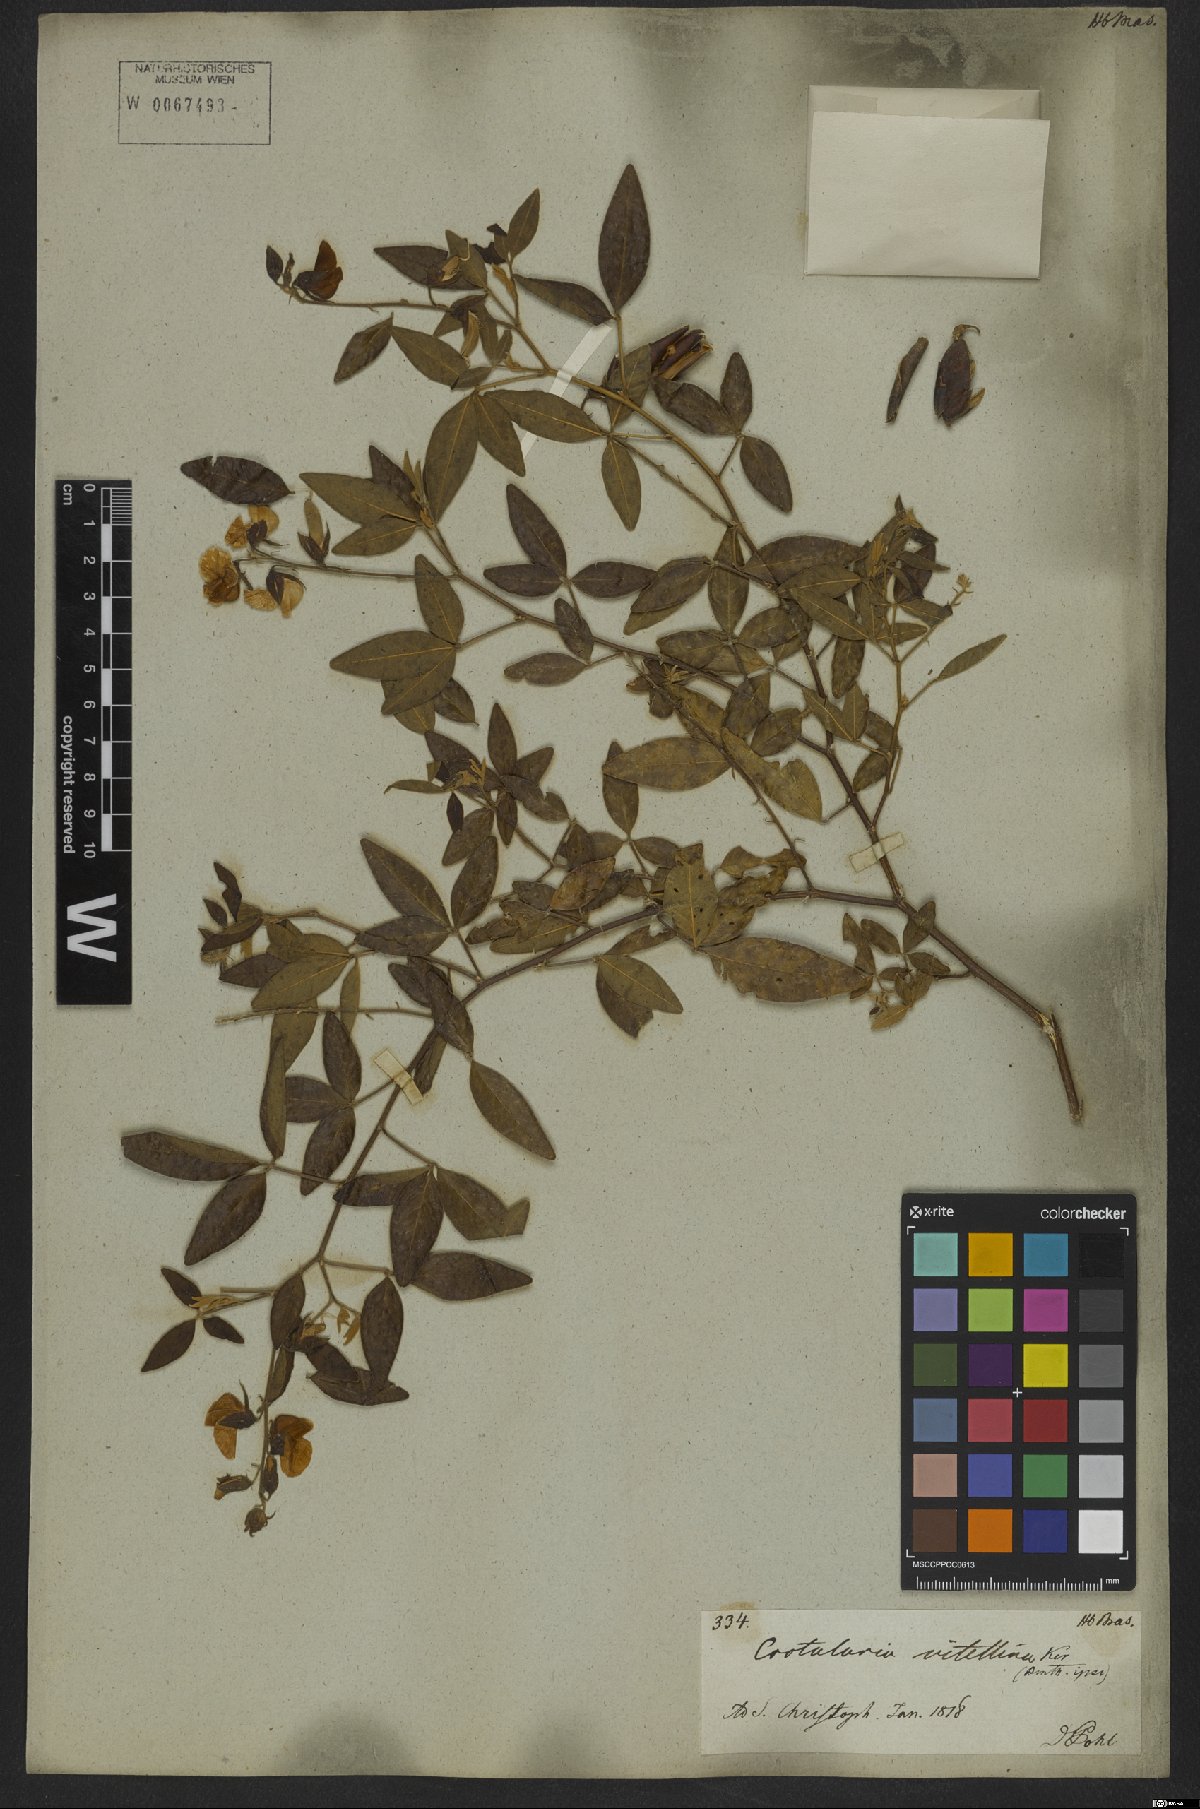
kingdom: Plantae
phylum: Tracheophyta
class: Magnoliopsida
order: Fabales
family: Fabaceae
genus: Crotalaria
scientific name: Crotalaria vitellina
